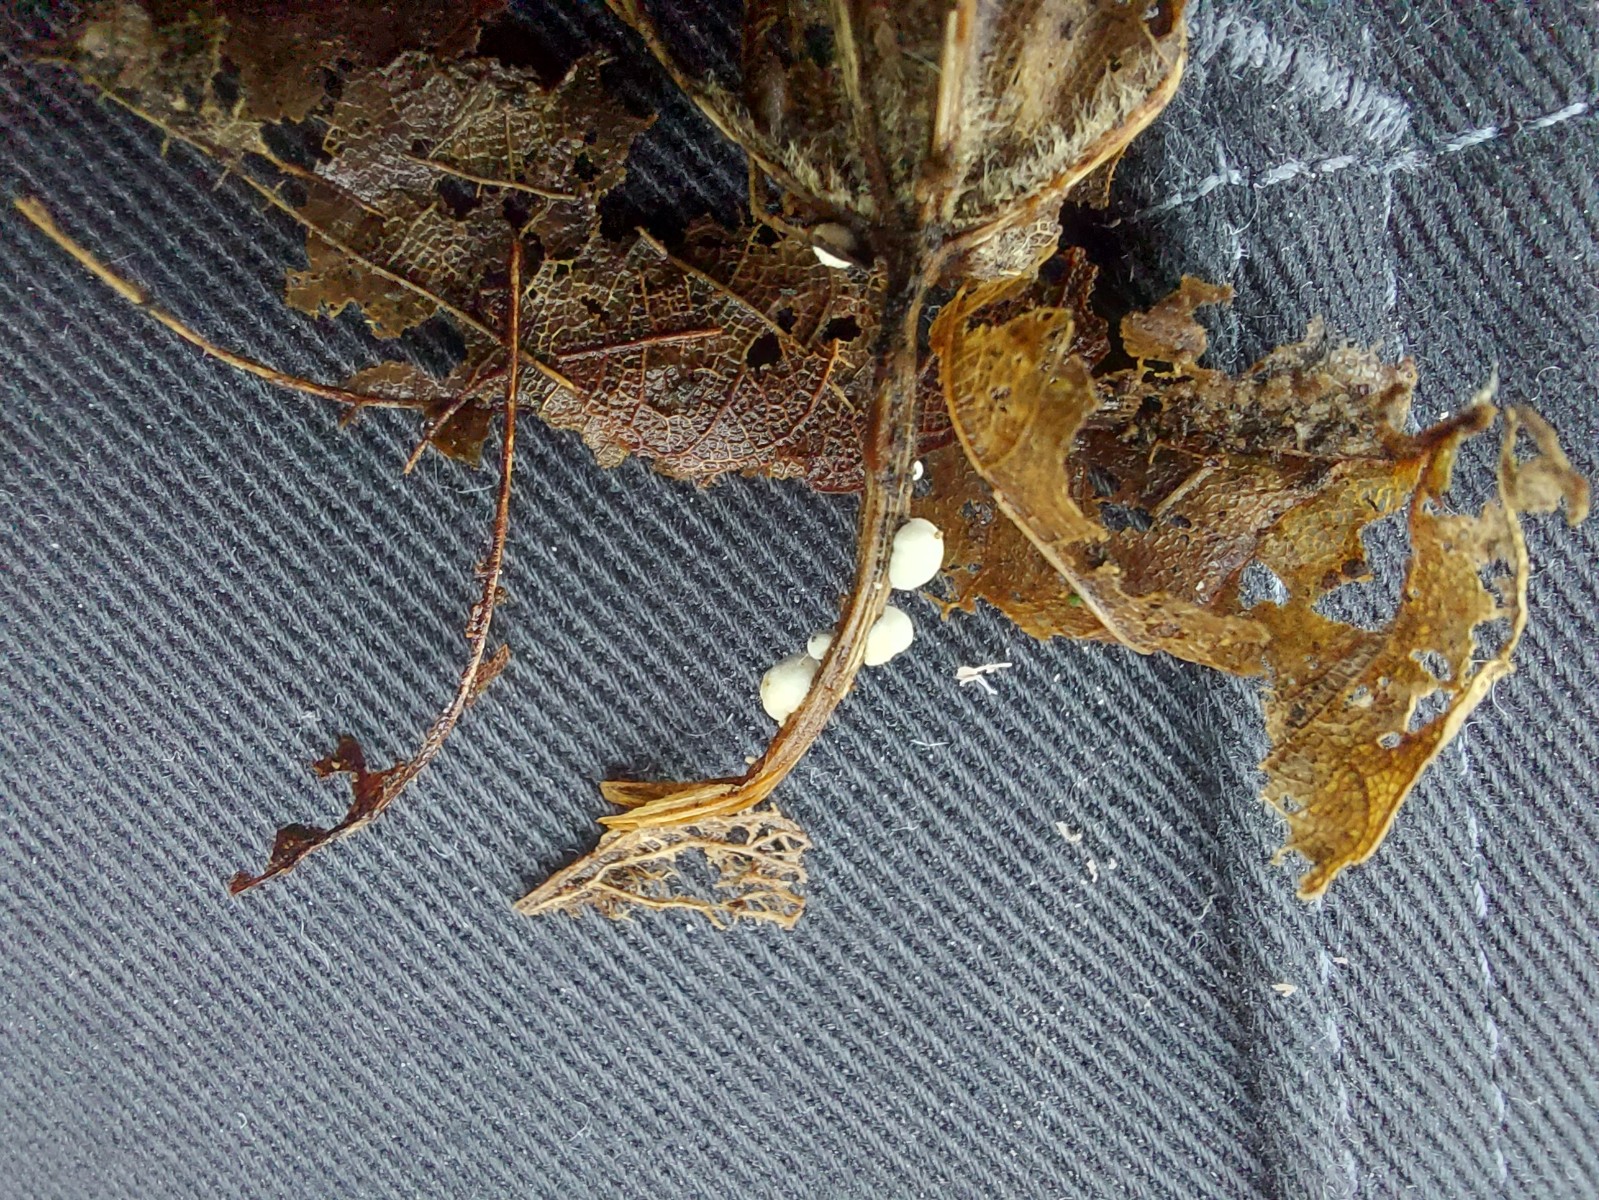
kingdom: Fungi
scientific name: Fungi
